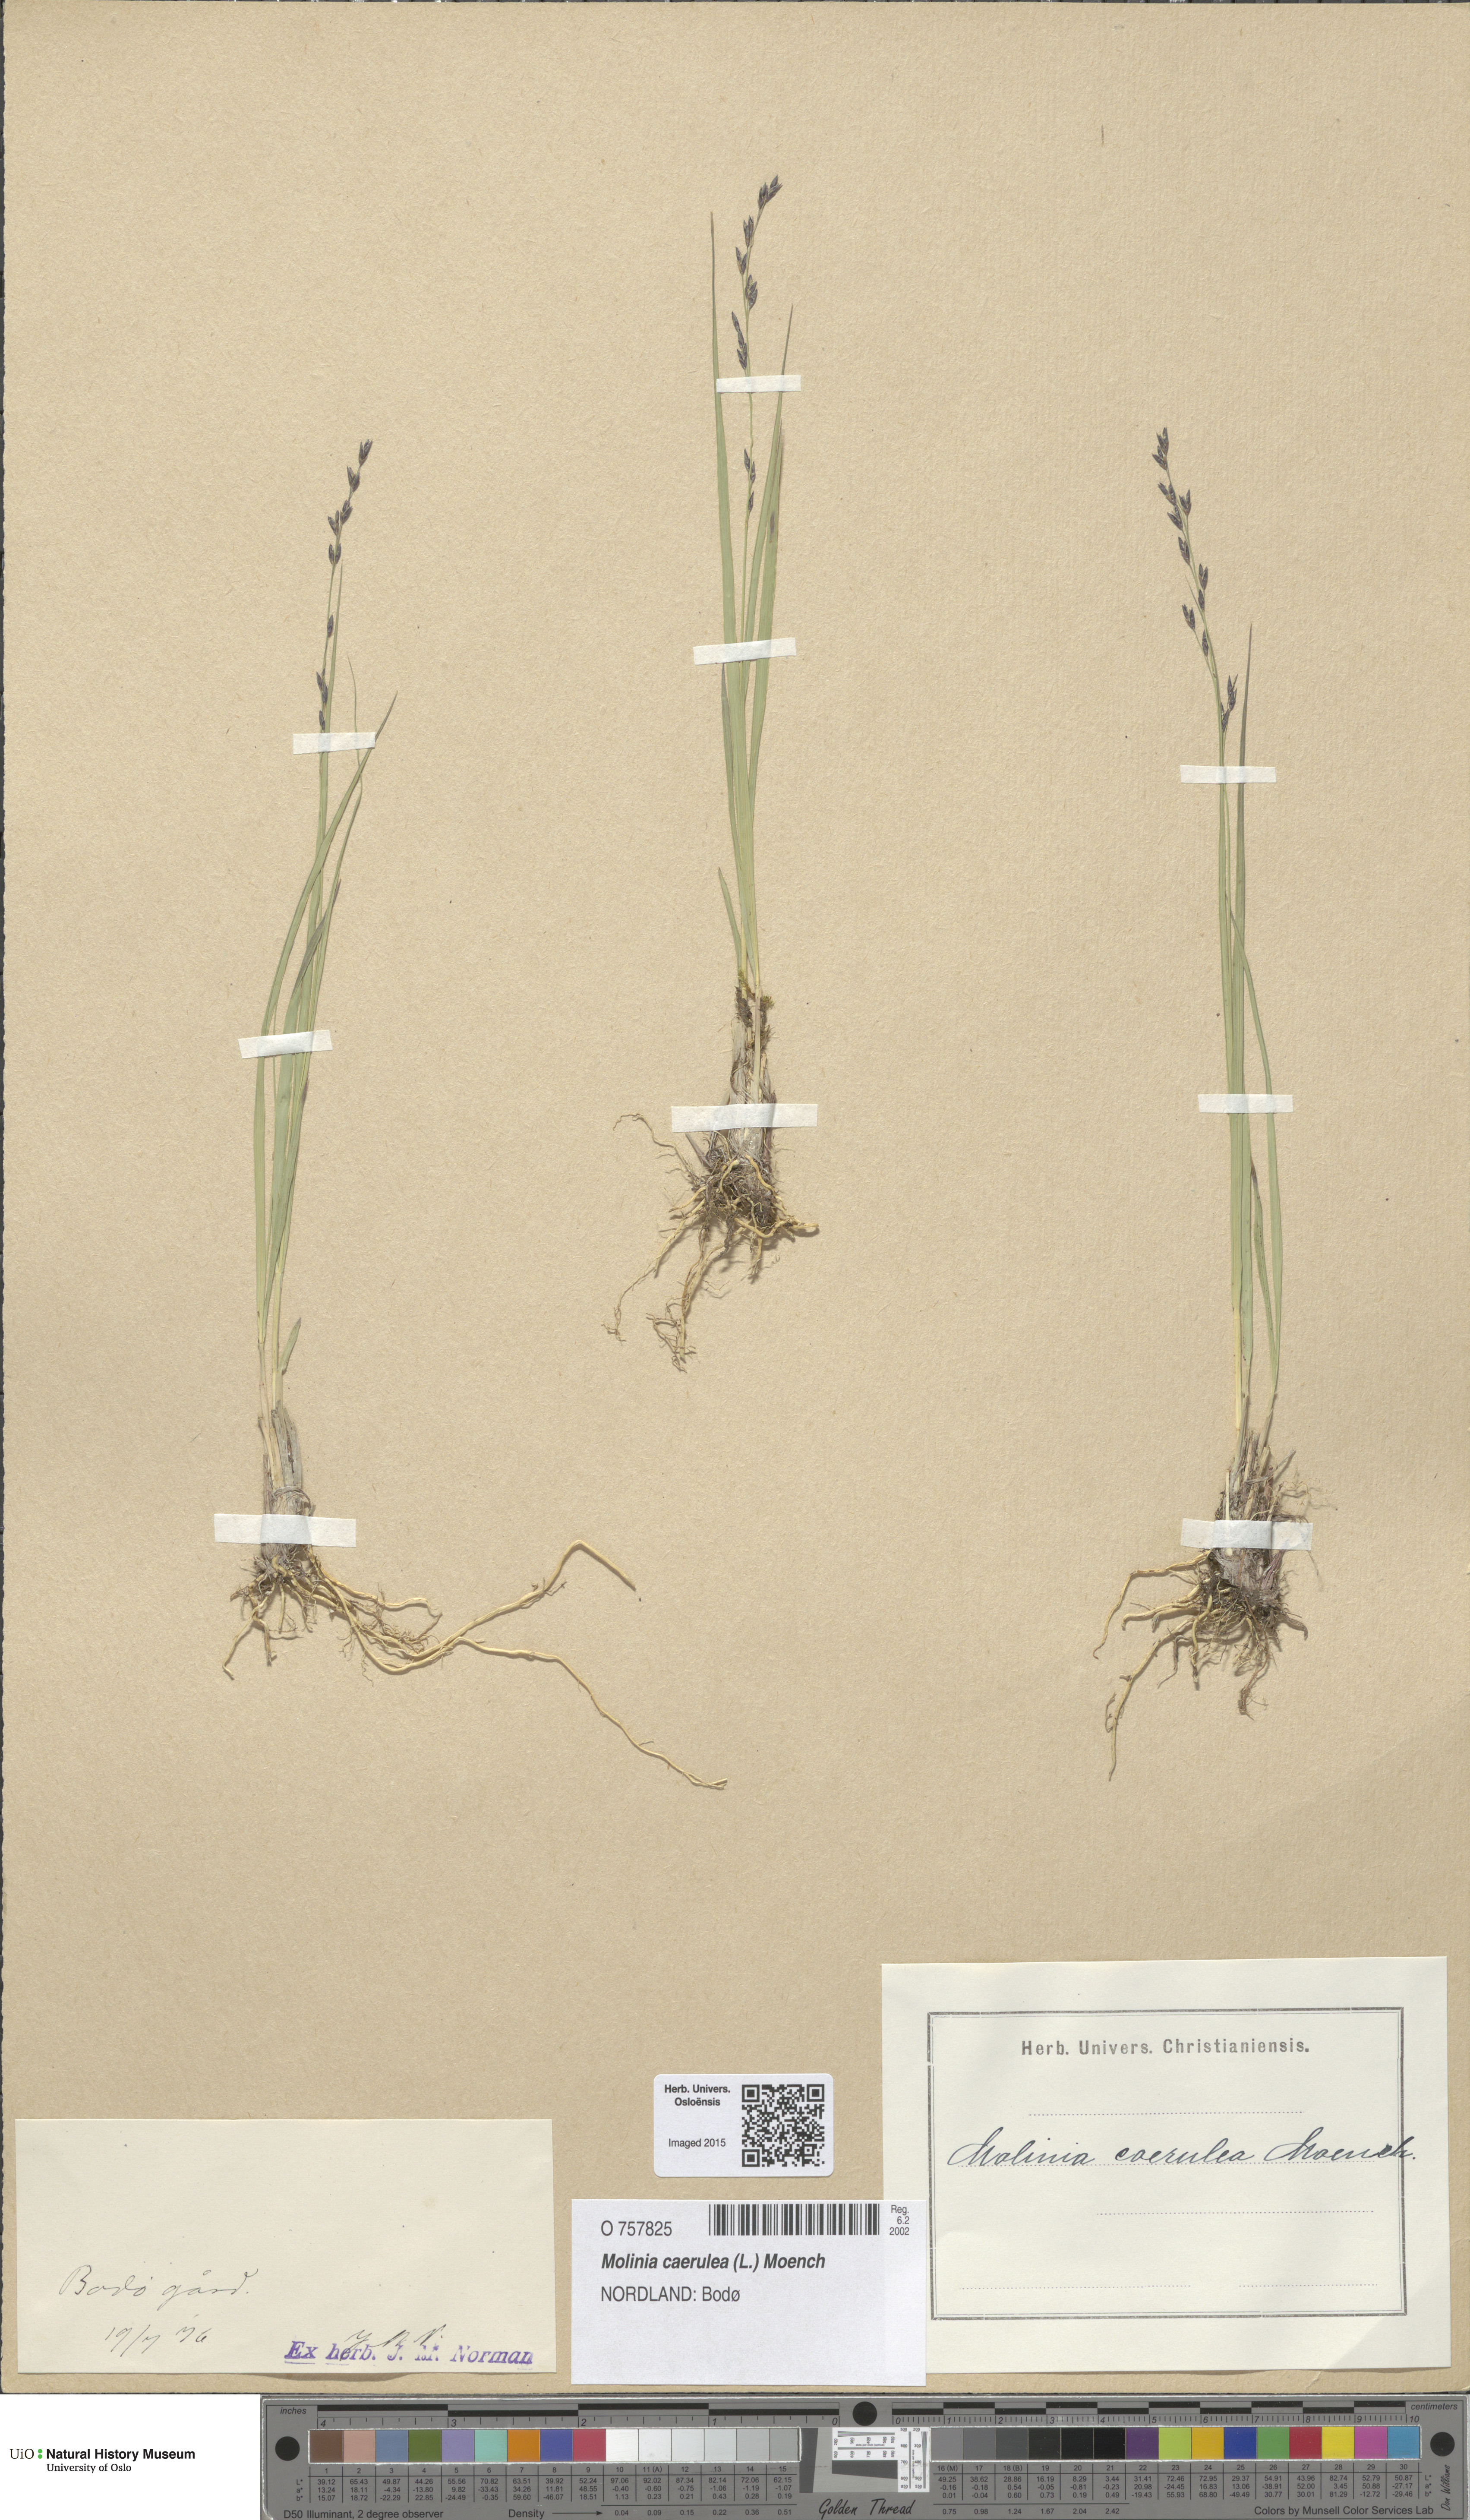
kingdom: Plantae
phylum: Tracheophyta
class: Liliopsida
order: Poales
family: Poaceae
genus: Molinia
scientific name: Molinia caerulea
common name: Purple moor-grass
